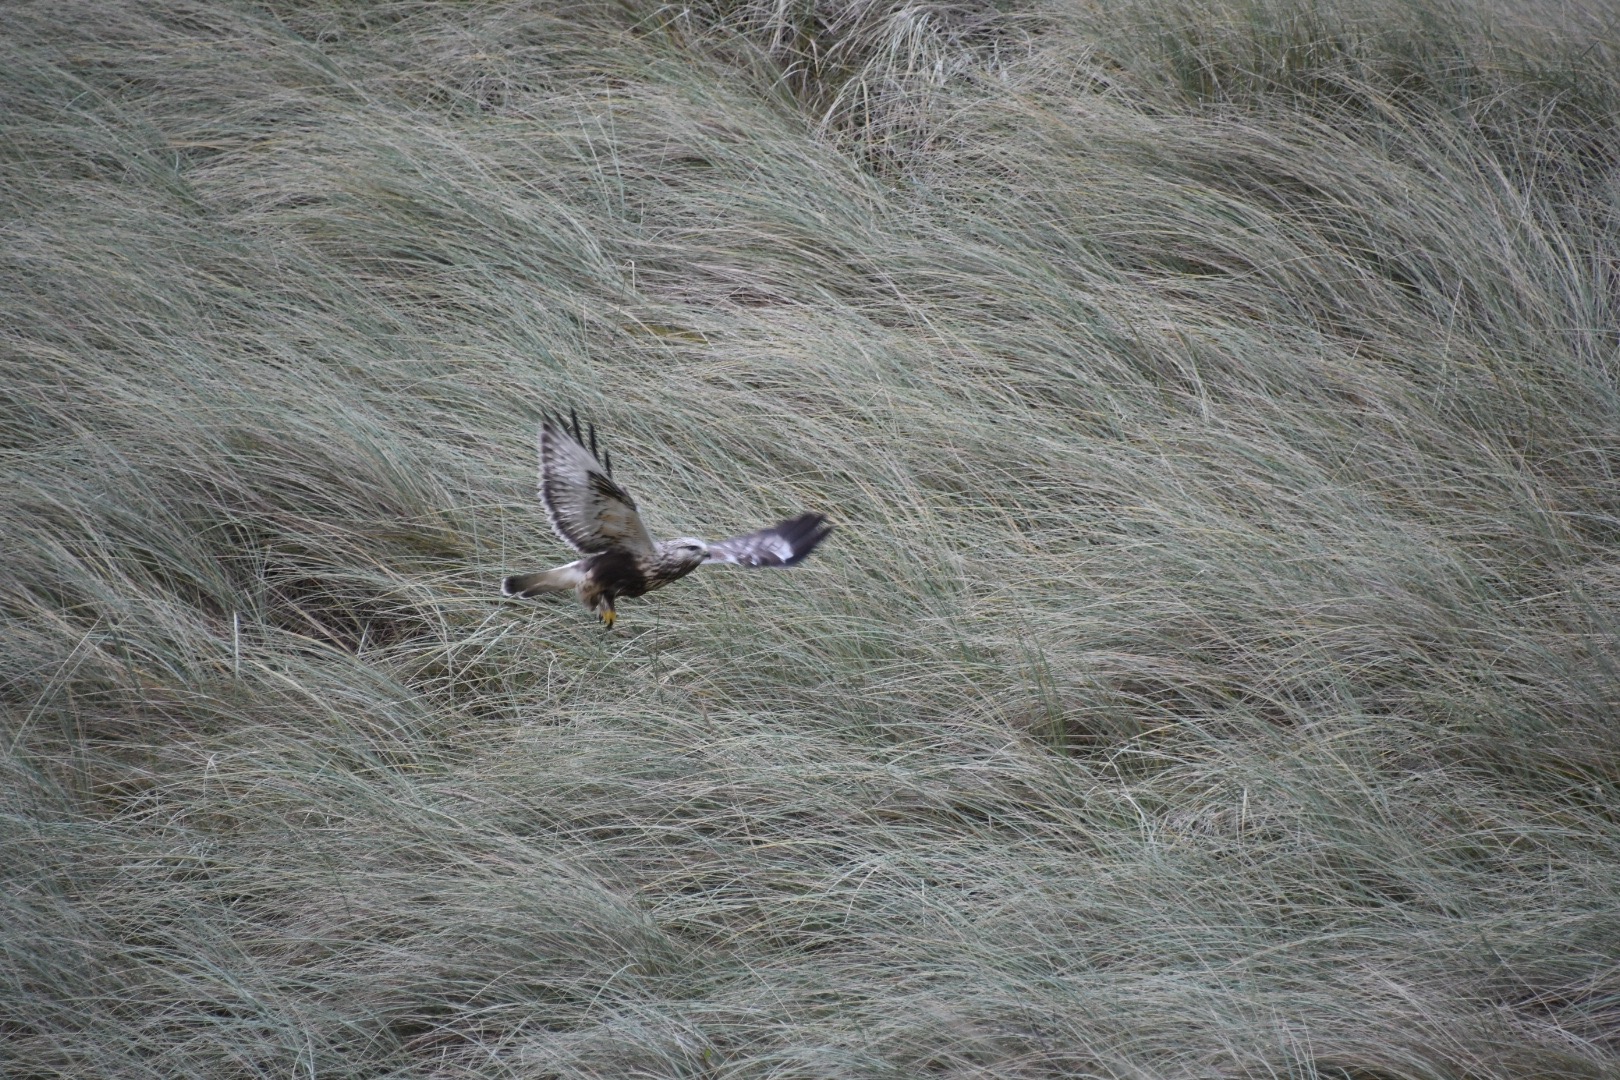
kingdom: Animalia
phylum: Chordata
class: Aves
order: Accipitriformes
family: Accipitridae
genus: Buteo
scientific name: Buteo lagopus
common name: Fjeldvåge
